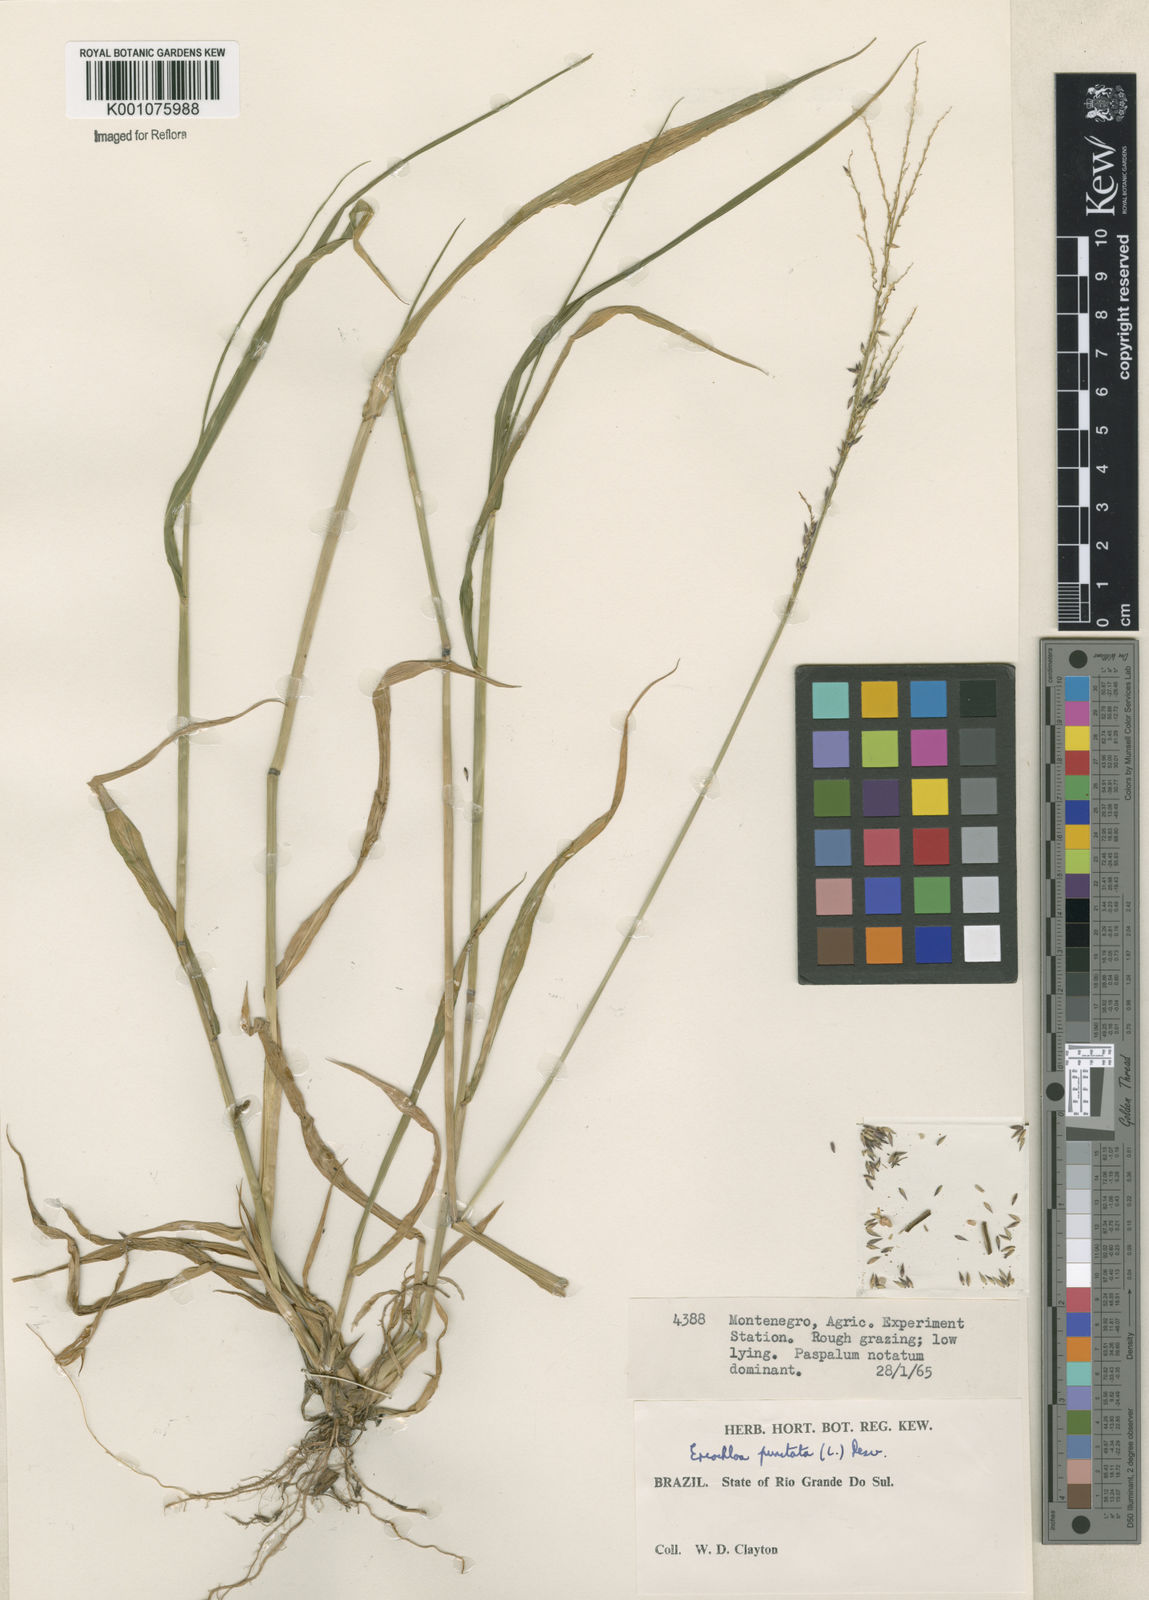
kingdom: Plantae
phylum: Tracheophyta
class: Liliopsida
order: Poales
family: Poaceae
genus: Eriochloa
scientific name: Eriochloa punctata
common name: Louisiana cupgrass
